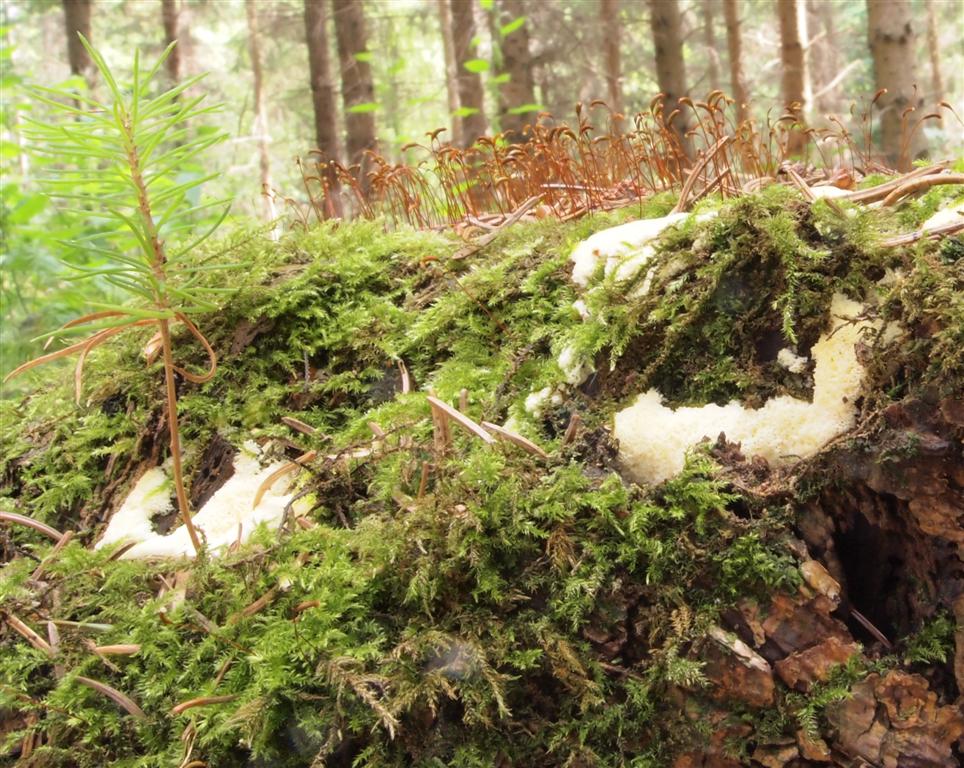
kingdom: Protozoa
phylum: Mycetozoa
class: Protosteliomycetes
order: Ceratiomyxales
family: Ceratiomyxaceae
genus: Ceratiomyxa
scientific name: Ceratiomyxa fruticulosa
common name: Honeycomb coral slime mold
